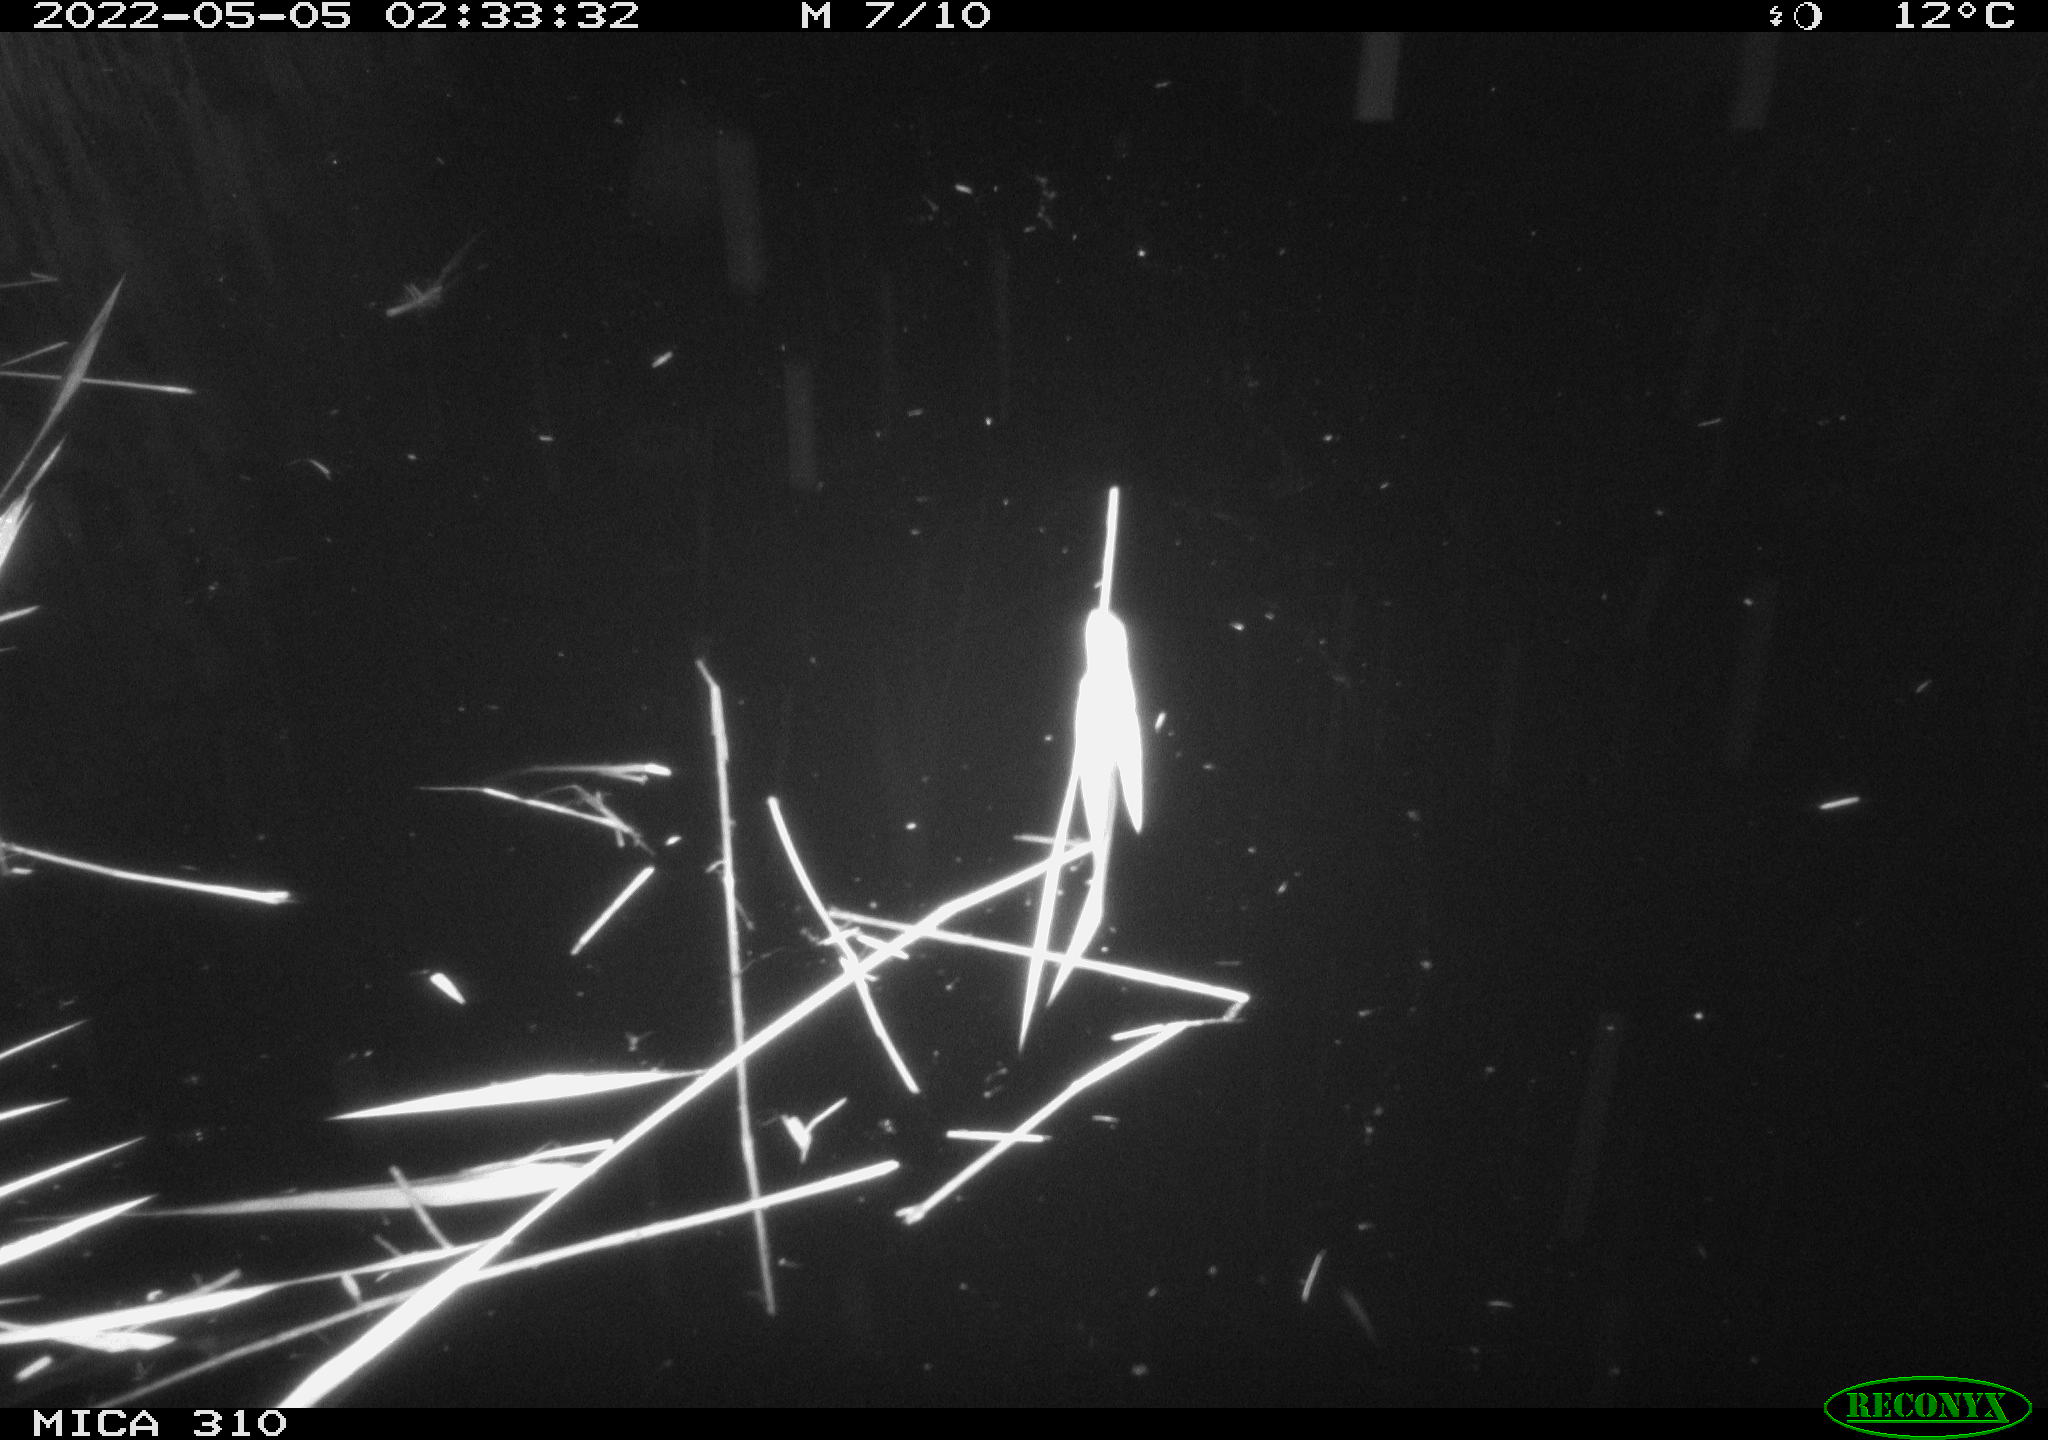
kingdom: Animalia
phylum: Chordata
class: Aves
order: Anseriformes
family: Anatidae
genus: Anas
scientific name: Anas platyrhynchos
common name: Mallard
